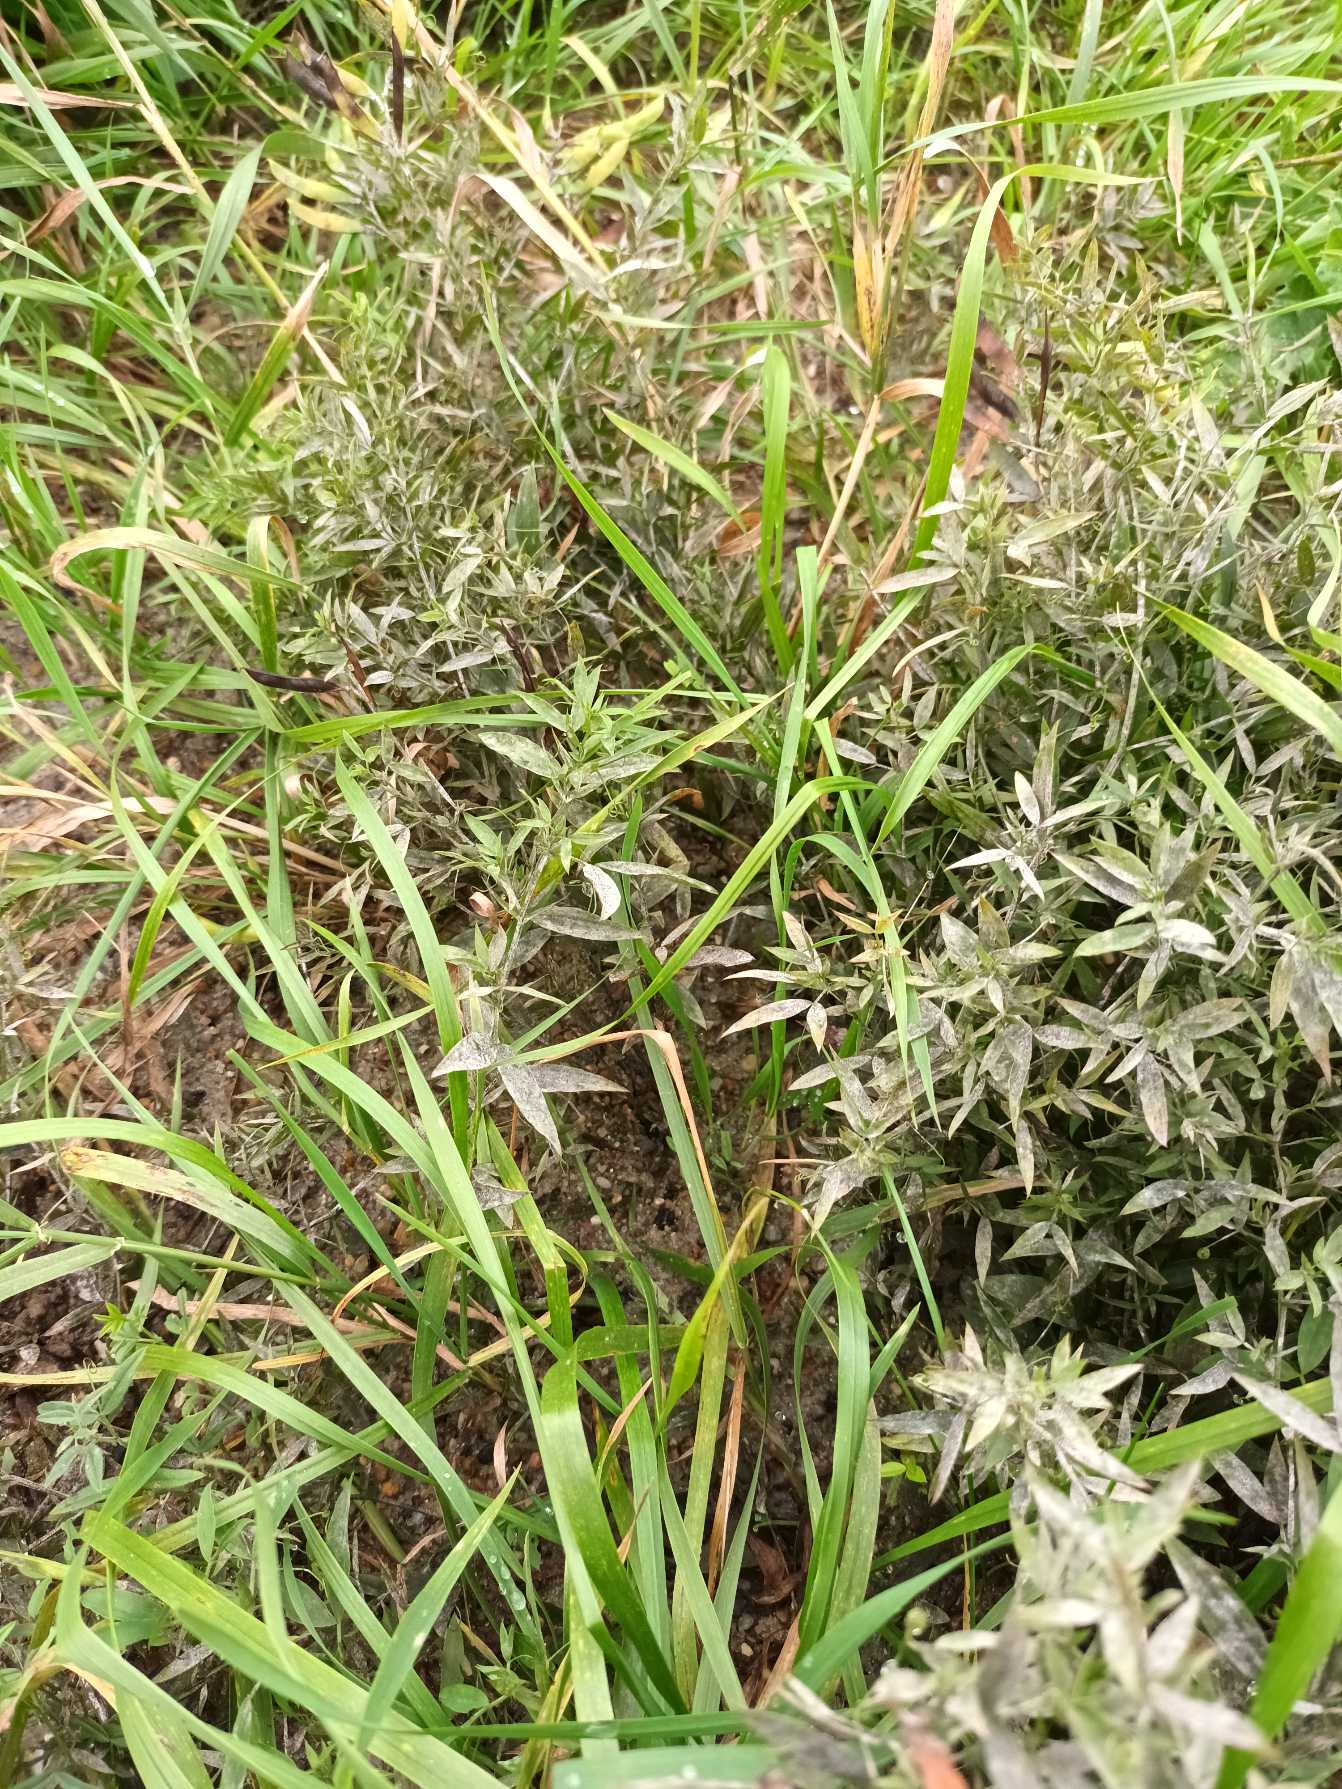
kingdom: Plantae
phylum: Tracheophyta
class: Magnoliopsida
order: Fabales
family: Fabaceae
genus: Lathyrus
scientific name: Lathyrus pratensis
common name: Gul fladbælg
